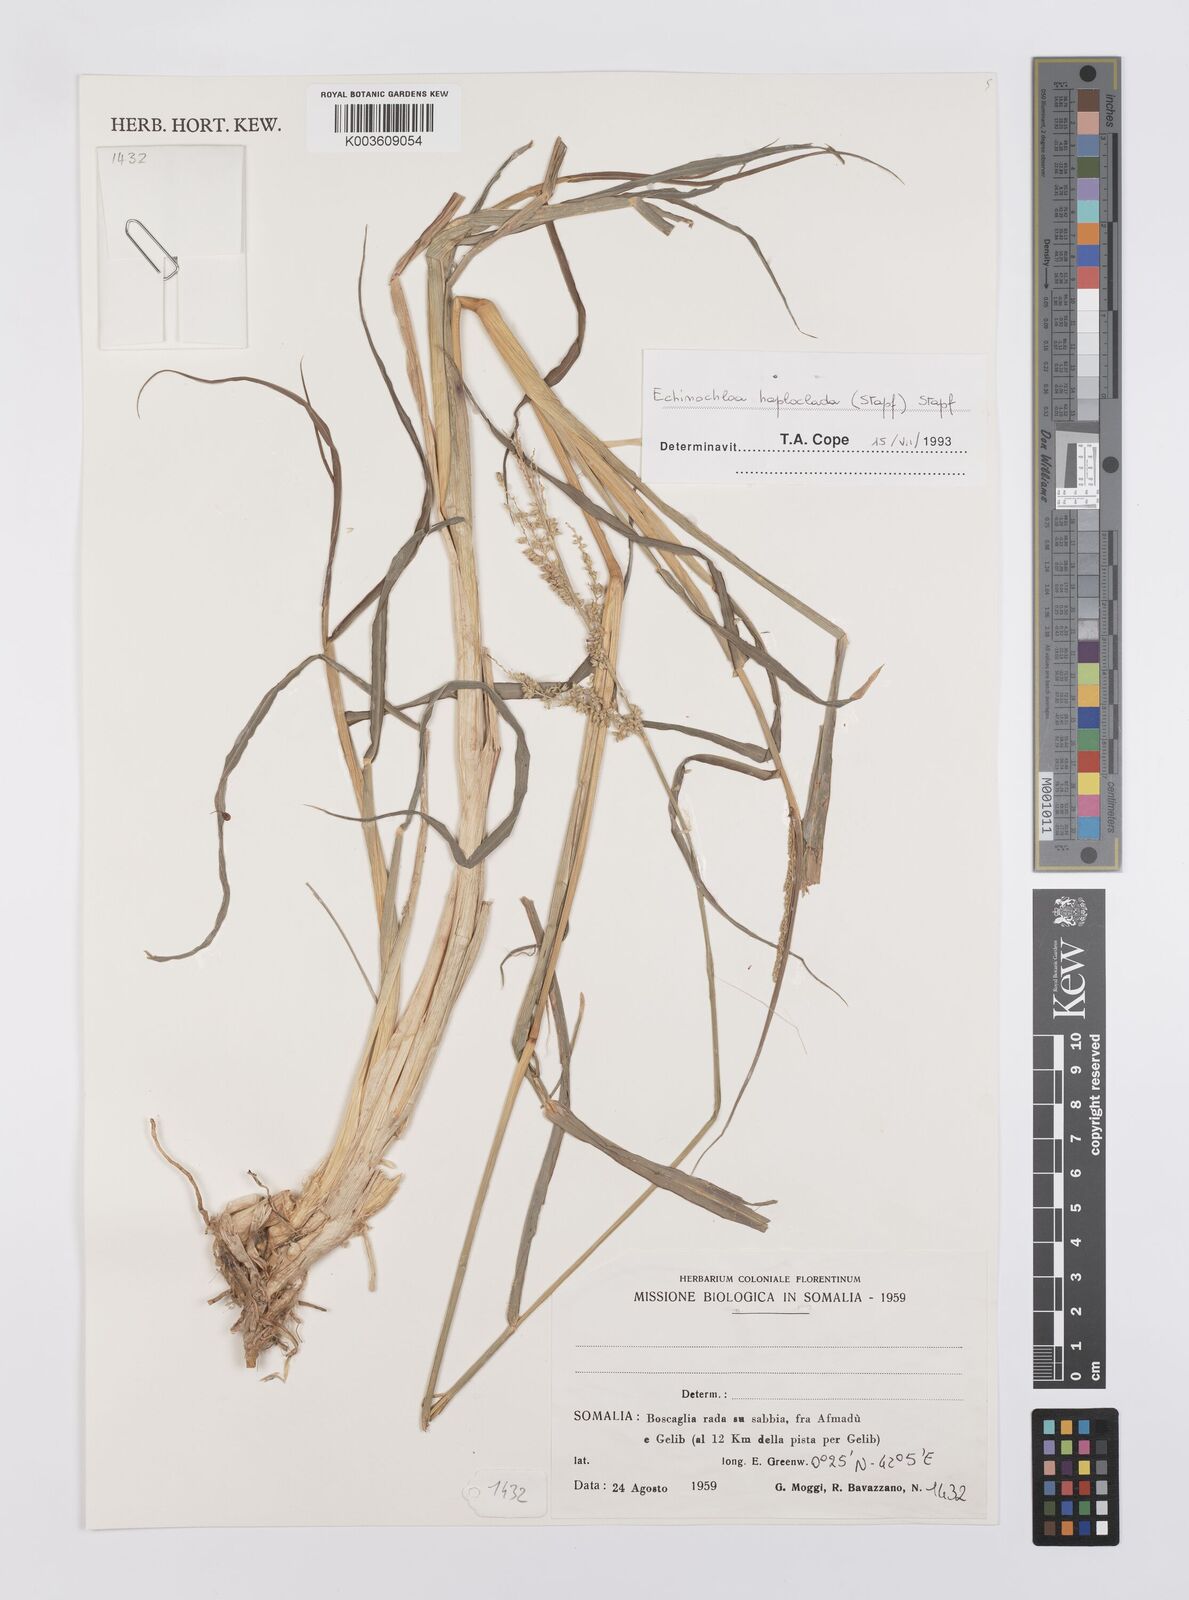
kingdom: Plantae
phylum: Tracheophyta
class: Liliopsida
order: Poales
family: Poaceae
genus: Echinochloa
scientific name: Echinochloa haploclada
